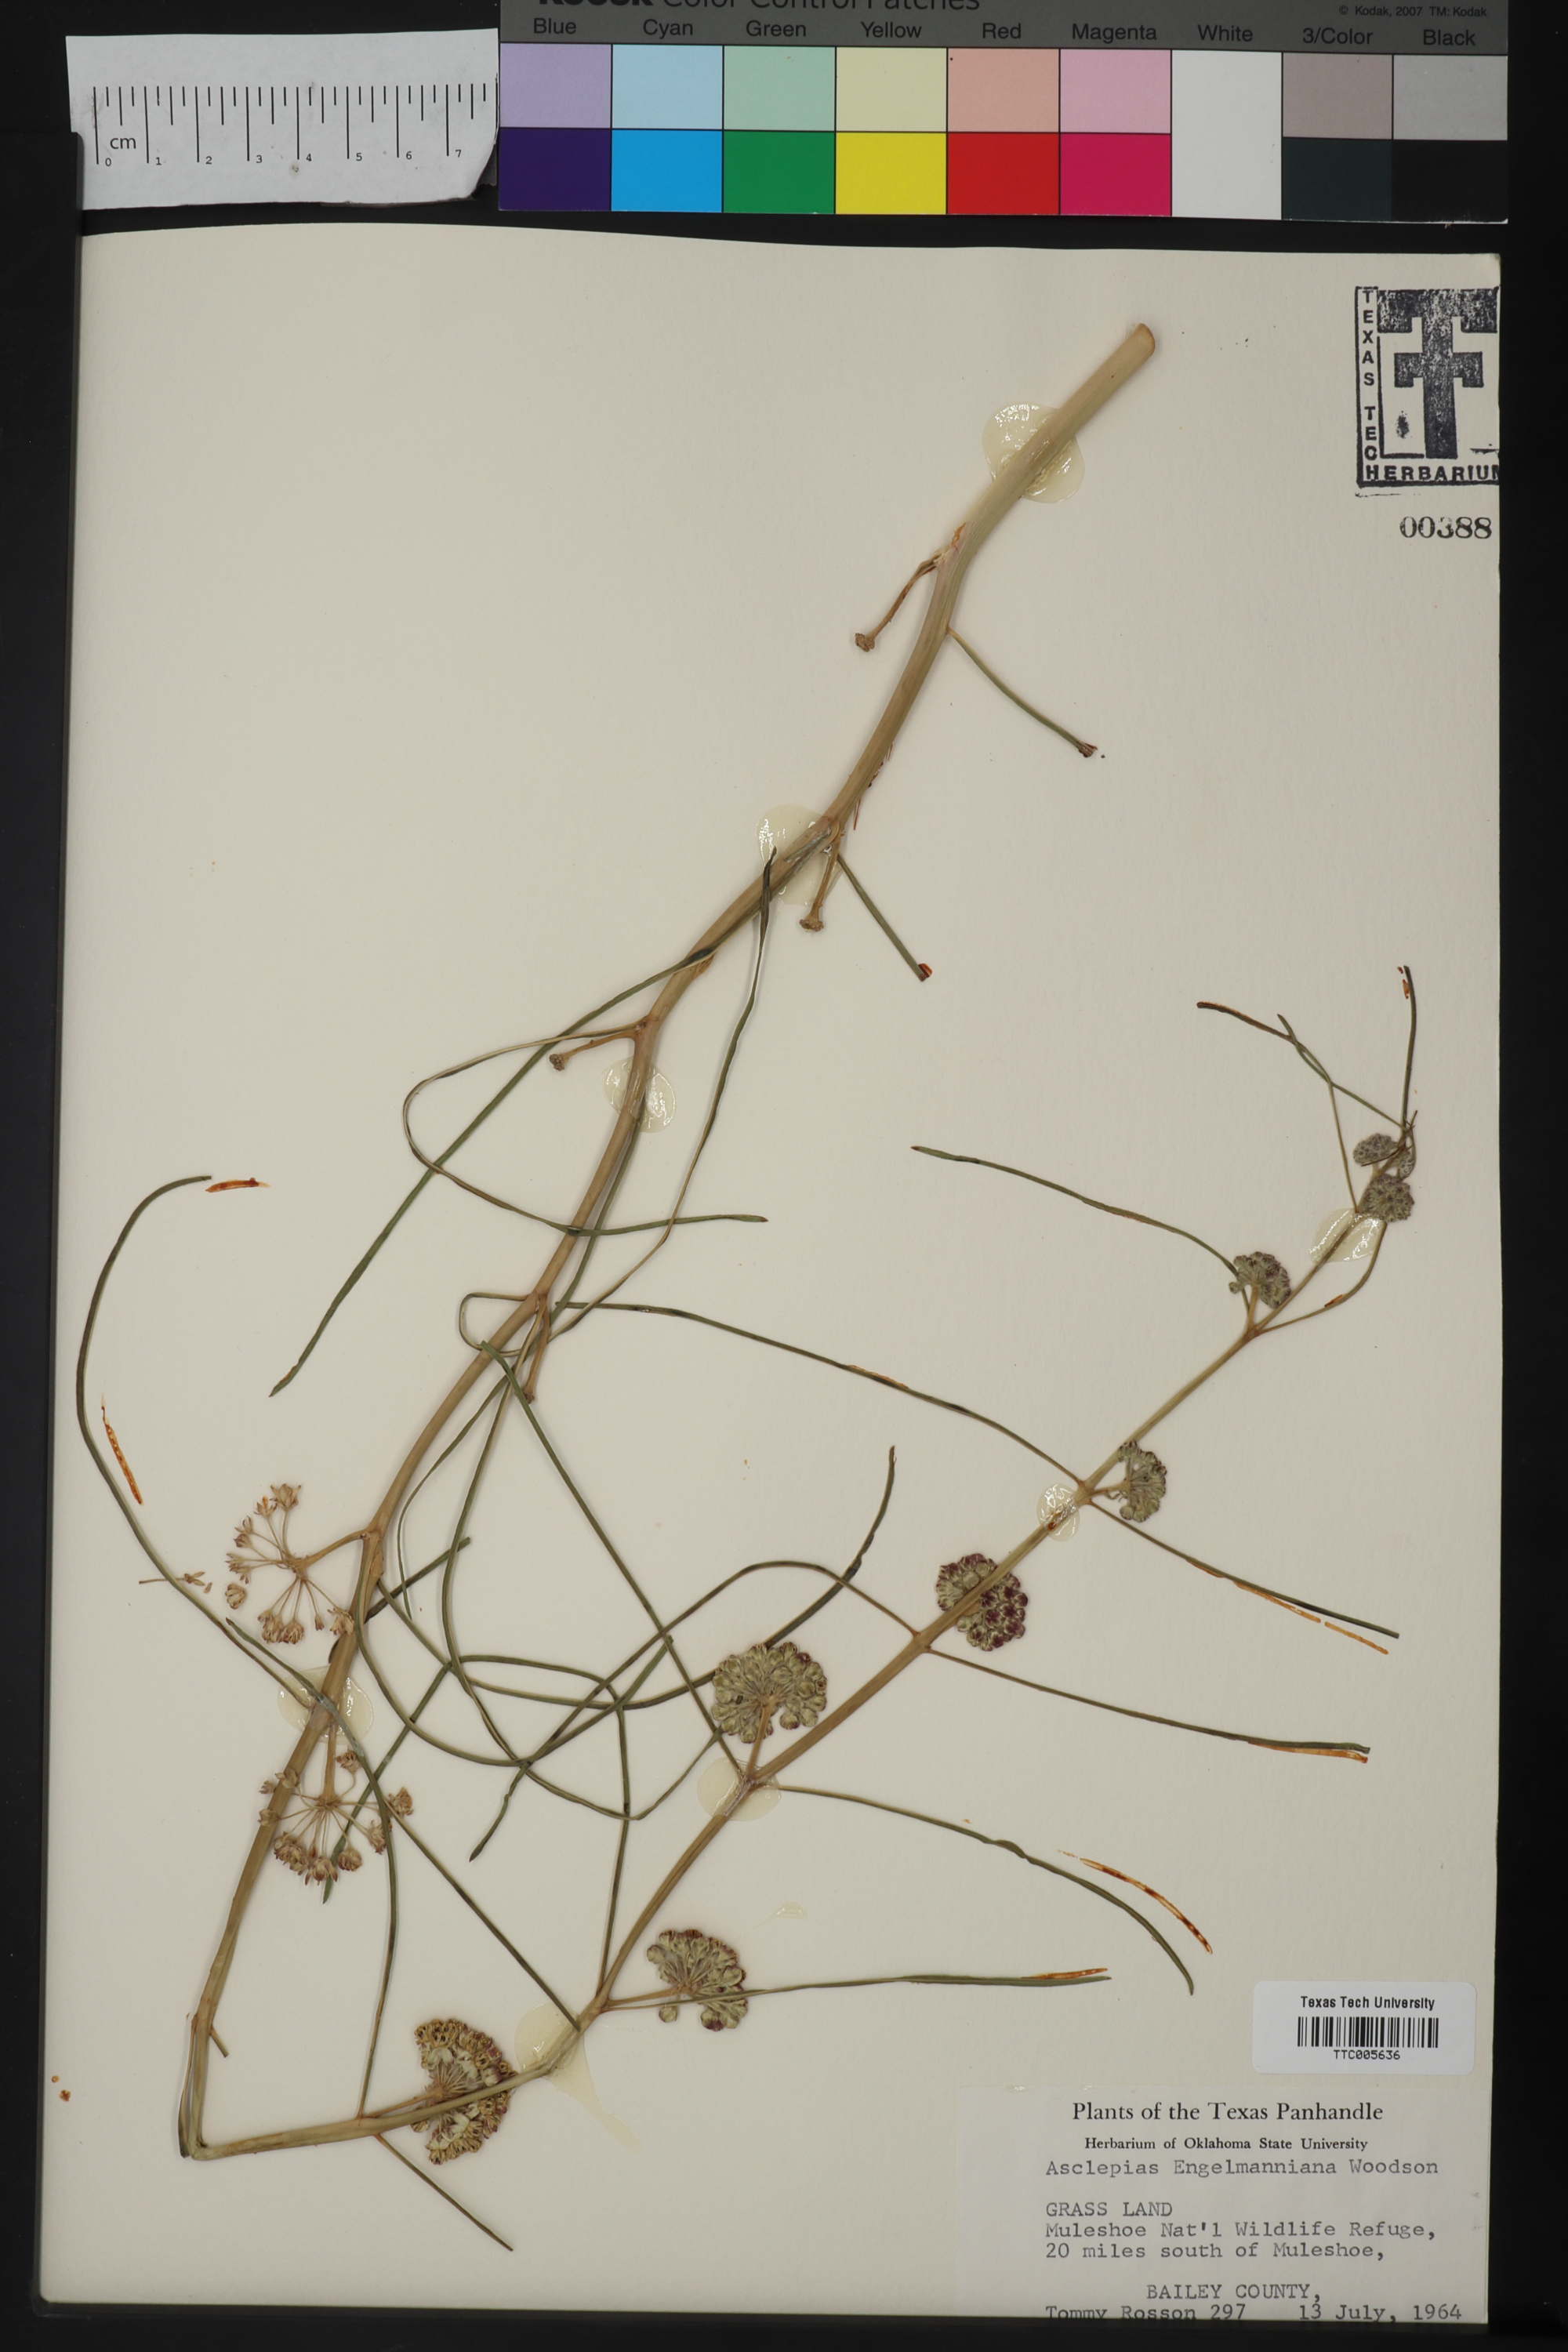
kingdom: Plantae
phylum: Tracheophyta
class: Magnoliopsida
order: Gentianales
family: Apocynaceae
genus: Asclepias
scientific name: Asclepias engelmanniana
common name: Engelmann's milkweed
